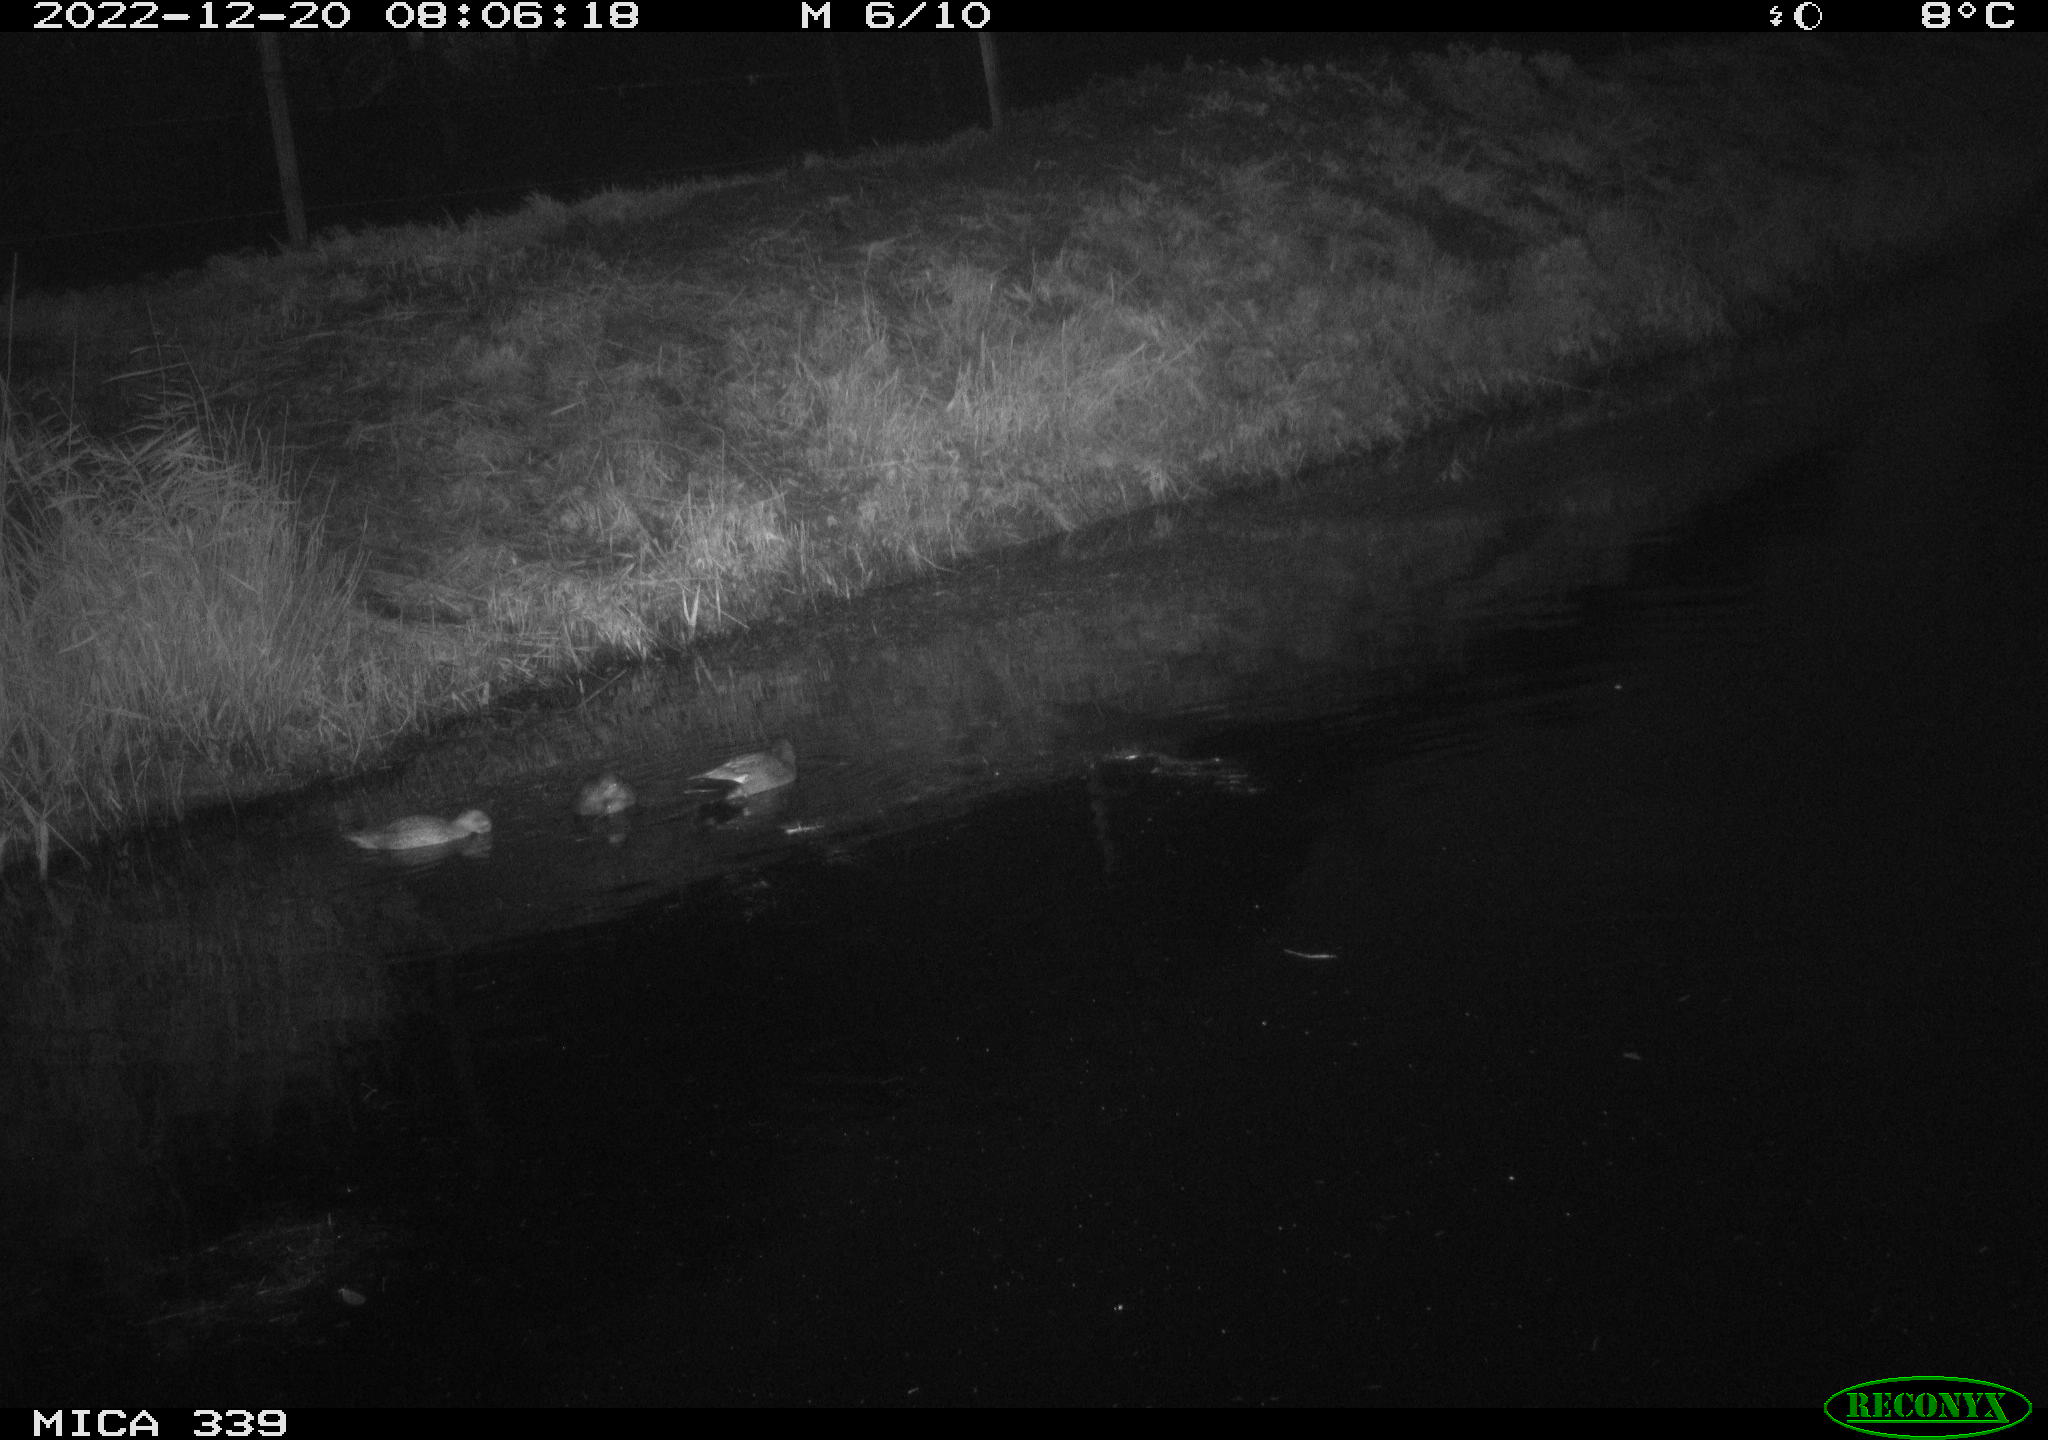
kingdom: Animalia
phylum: Chordata
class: Aves
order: Anseriformes
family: Anatidae
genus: Anas
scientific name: Anas
